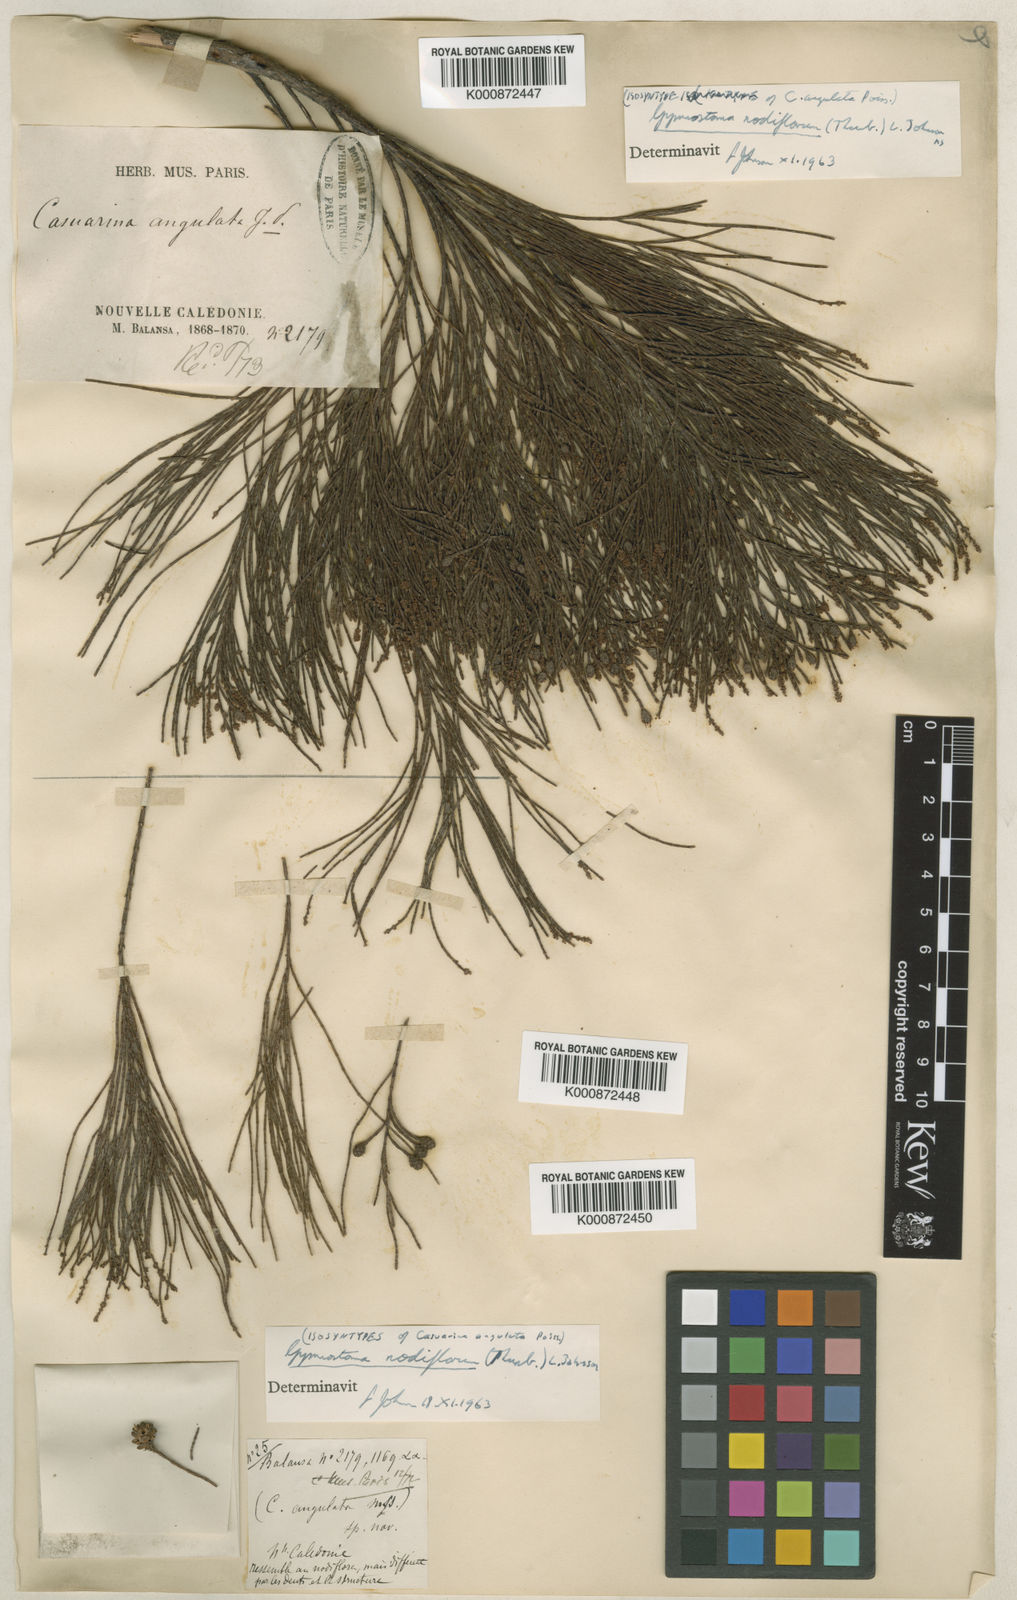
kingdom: Plantae
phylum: Tracheophyta
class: Magnoliopsida
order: Fagales
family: Casuarinaceae
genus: Gymnostoma
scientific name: Gymnostoma nodiflorum
